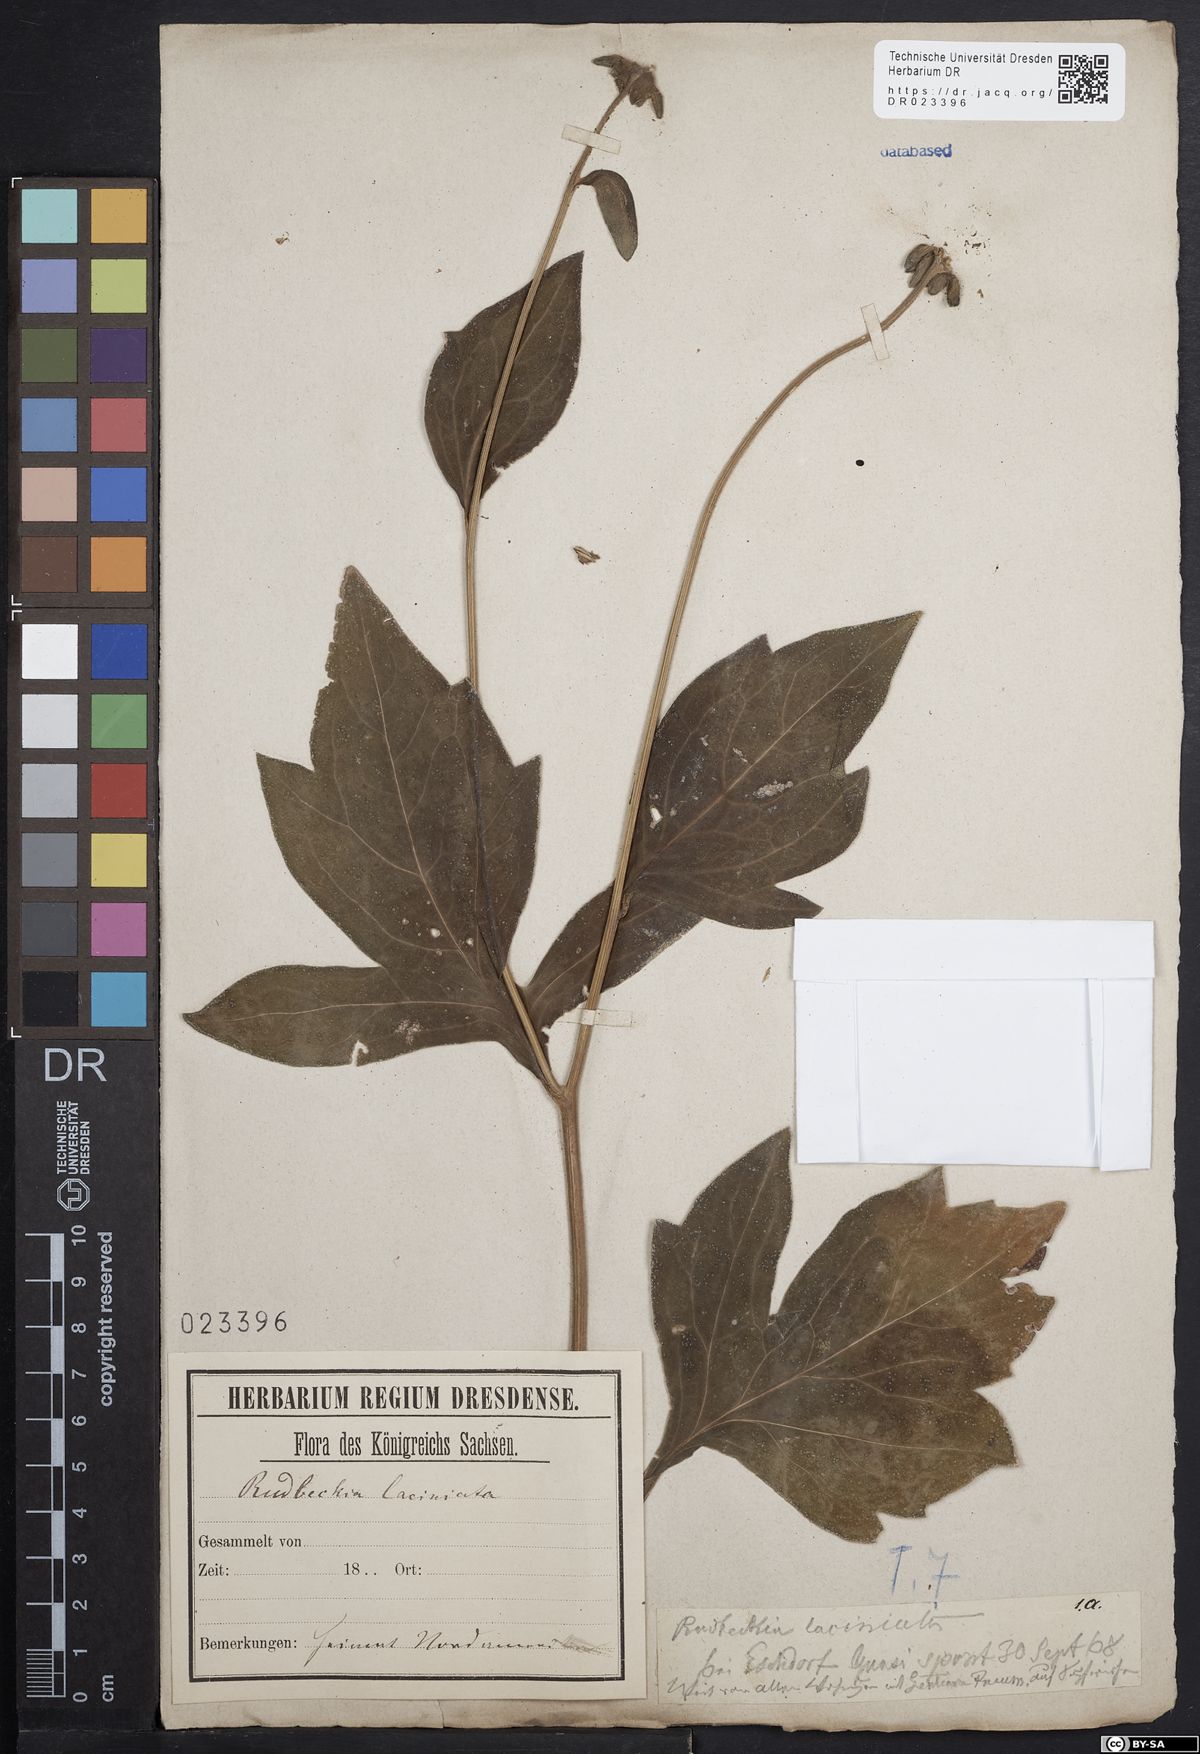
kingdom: Plantae
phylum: Tracheophyta
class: Magnoliopsida
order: Asterales
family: Asteraceae
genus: Rudbeckia
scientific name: Rudbeckia laciniata
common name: Coneflower
